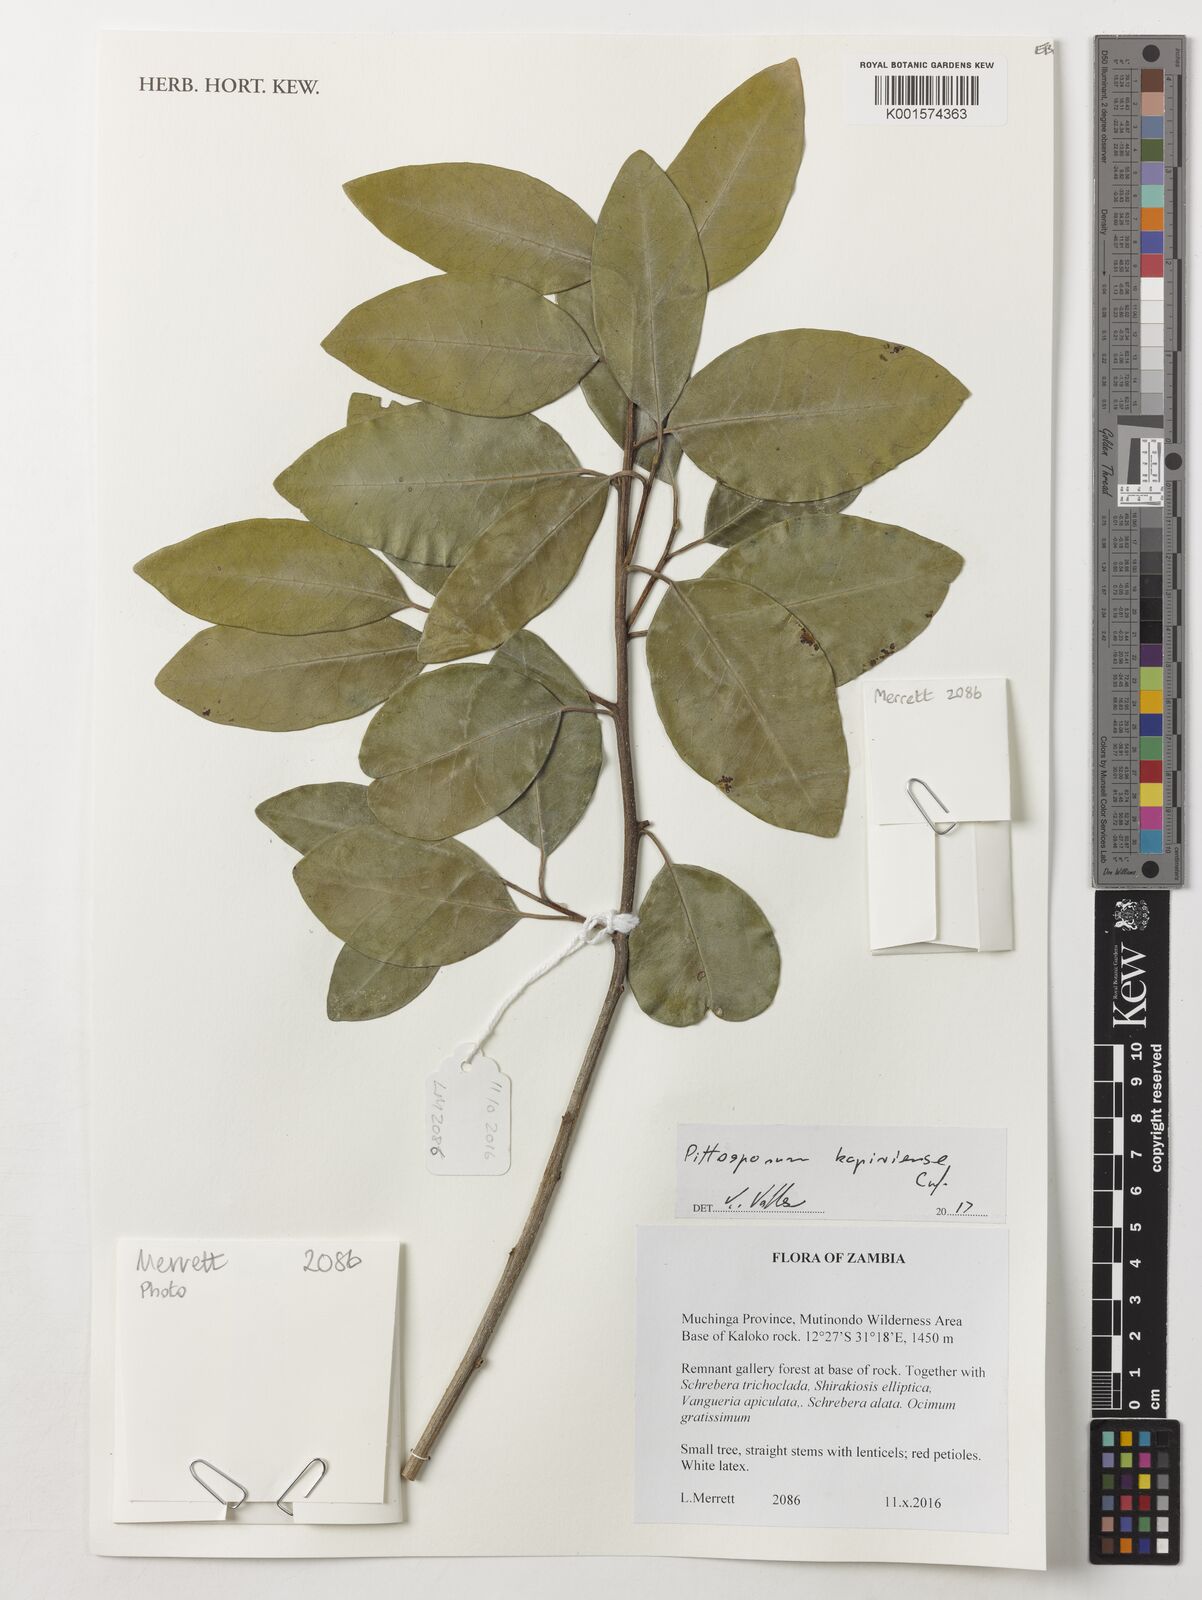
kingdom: Plantae
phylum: Tracheophyta
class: Magnoliopsida
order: Apiales
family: Pittosporaceae
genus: Pittosporum
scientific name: Pittosporum viridiflorum
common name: Cape cheesewood
